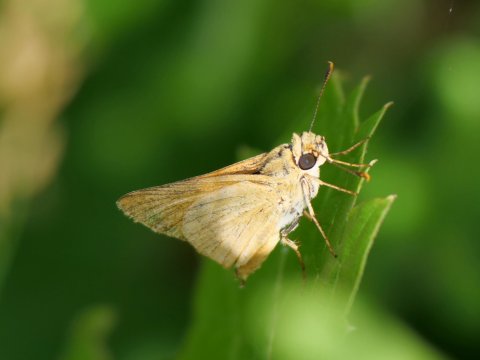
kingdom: Animalia
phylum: Arthropoda
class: Insecta
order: Lepidoptera
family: Hesperiidae
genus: Thymelicus
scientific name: Thymelicus lineola
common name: European Skipper
